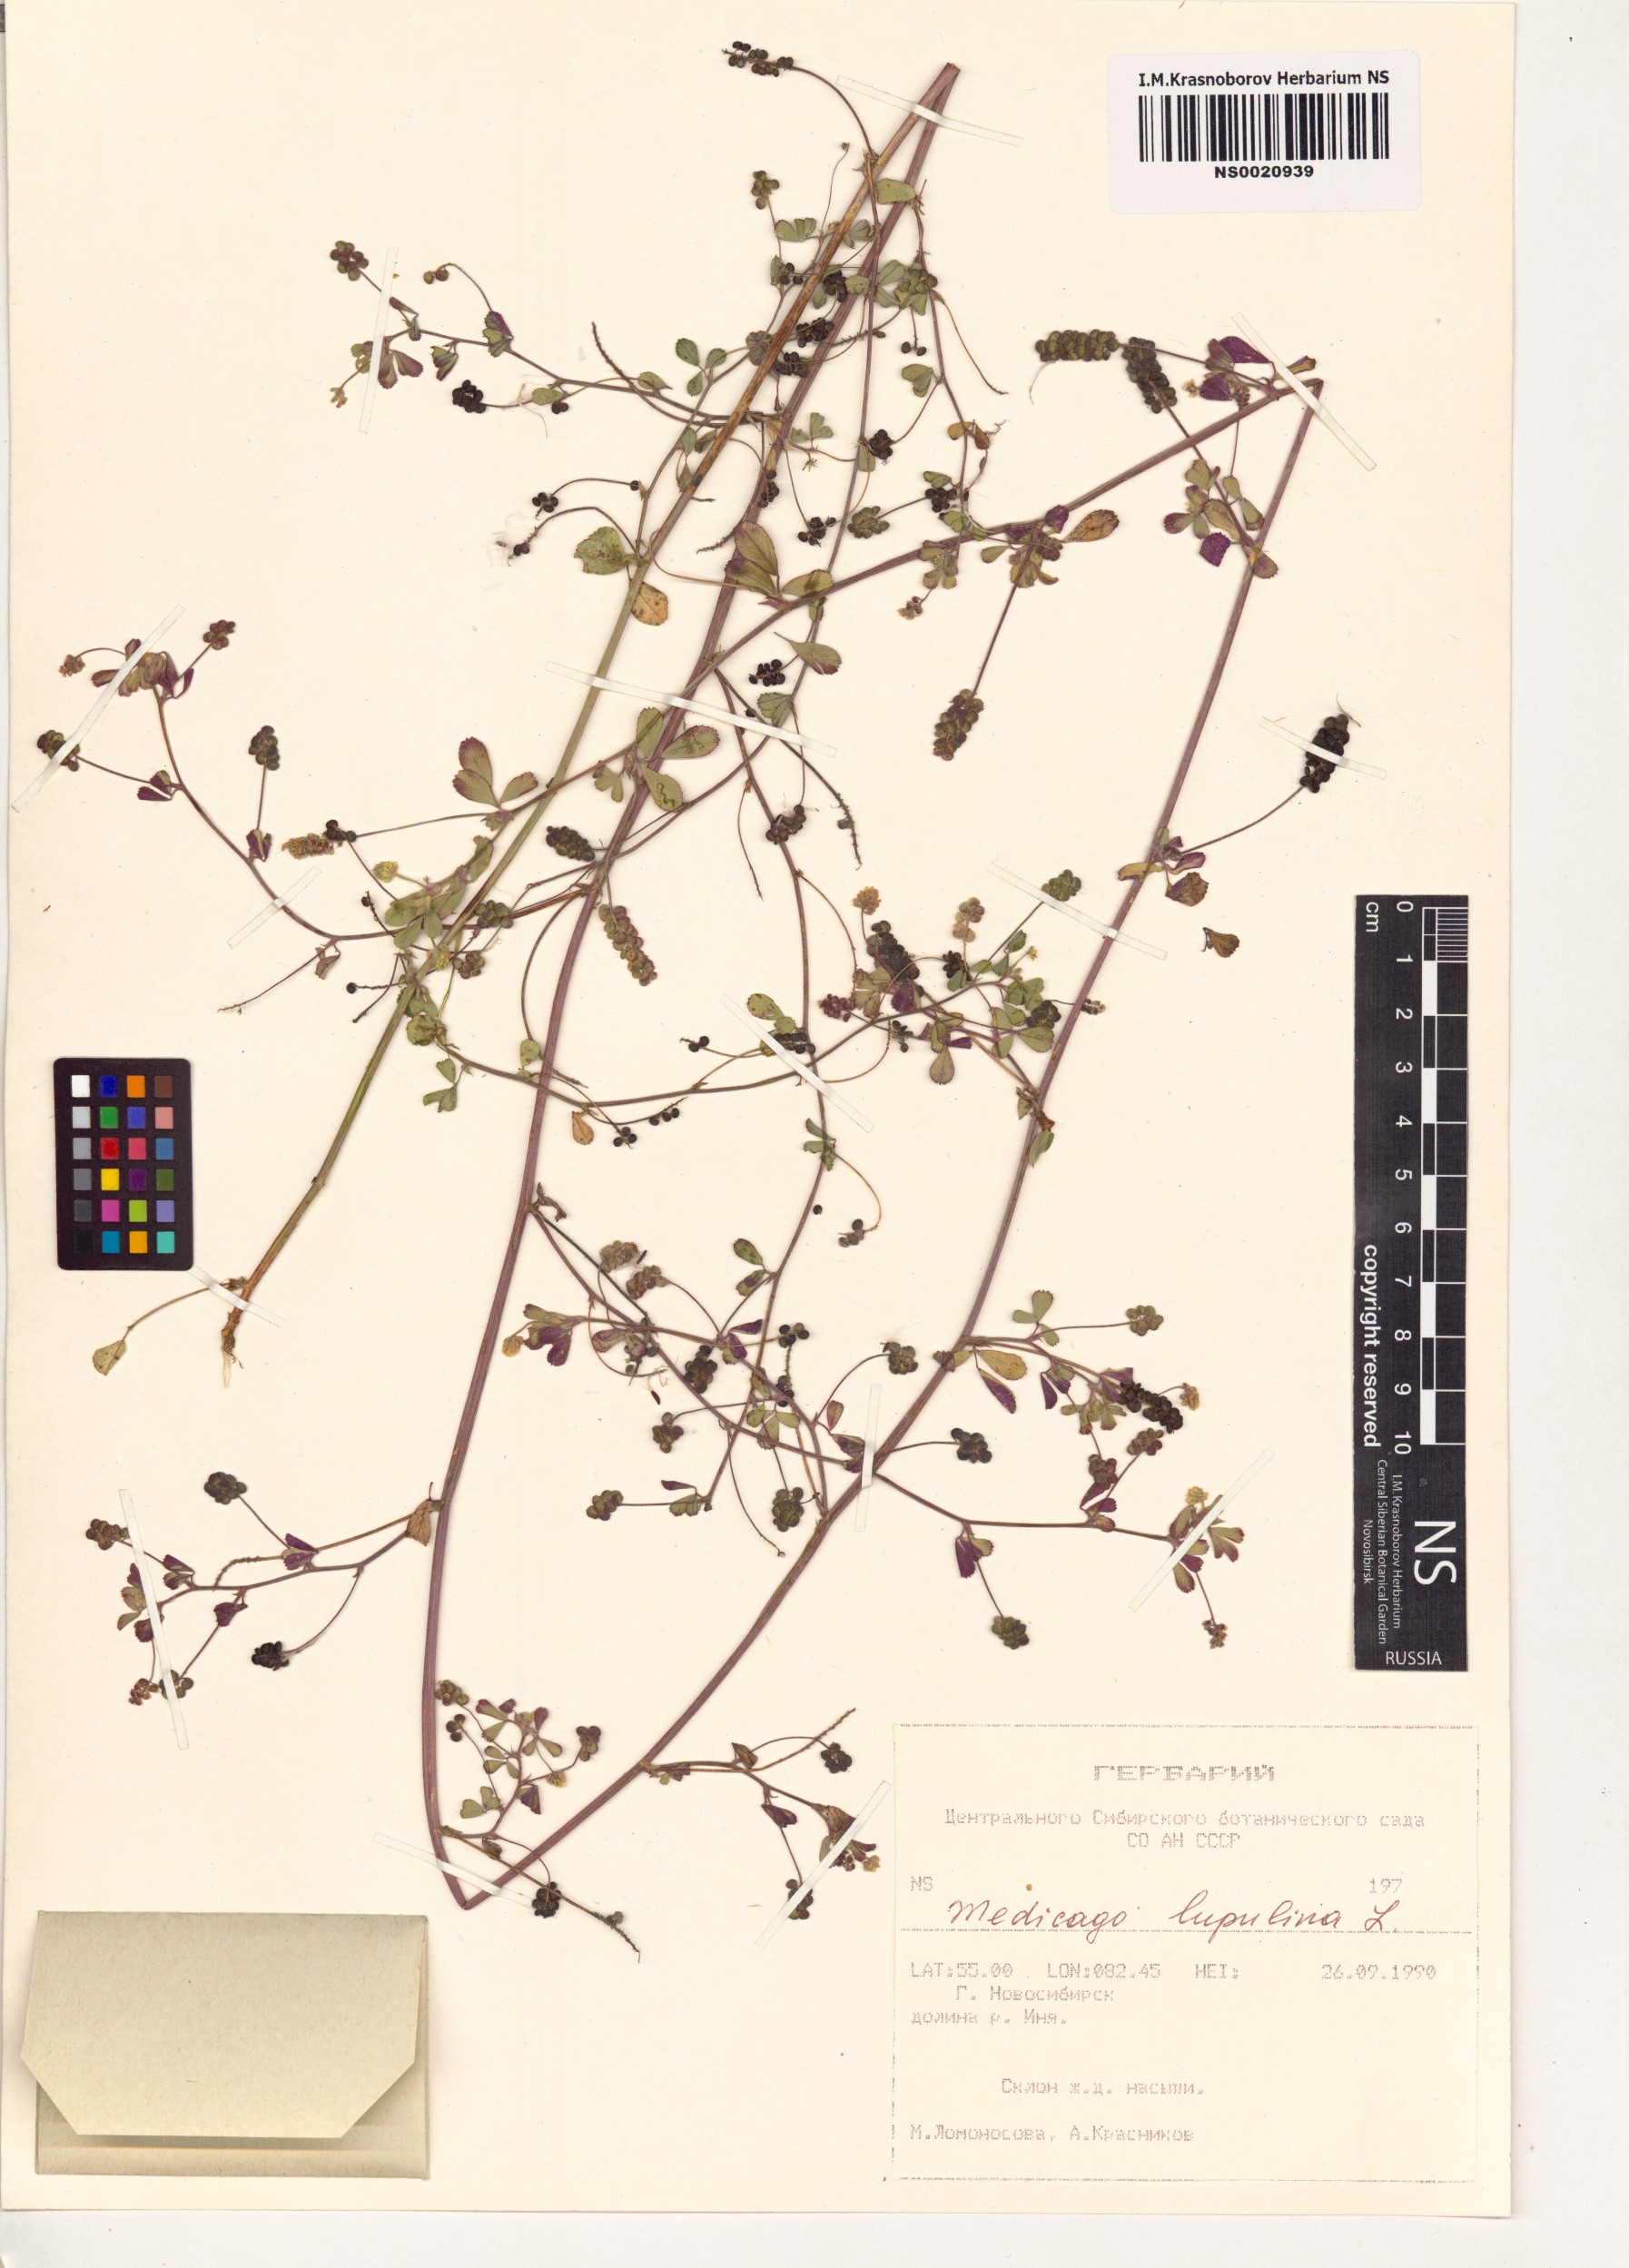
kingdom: Plantae
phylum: Tracheophyta
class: Magnoliopsida
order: Fabales
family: Fabaceae
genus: Medicago
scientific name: Medicago lupulina
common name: Black medick
